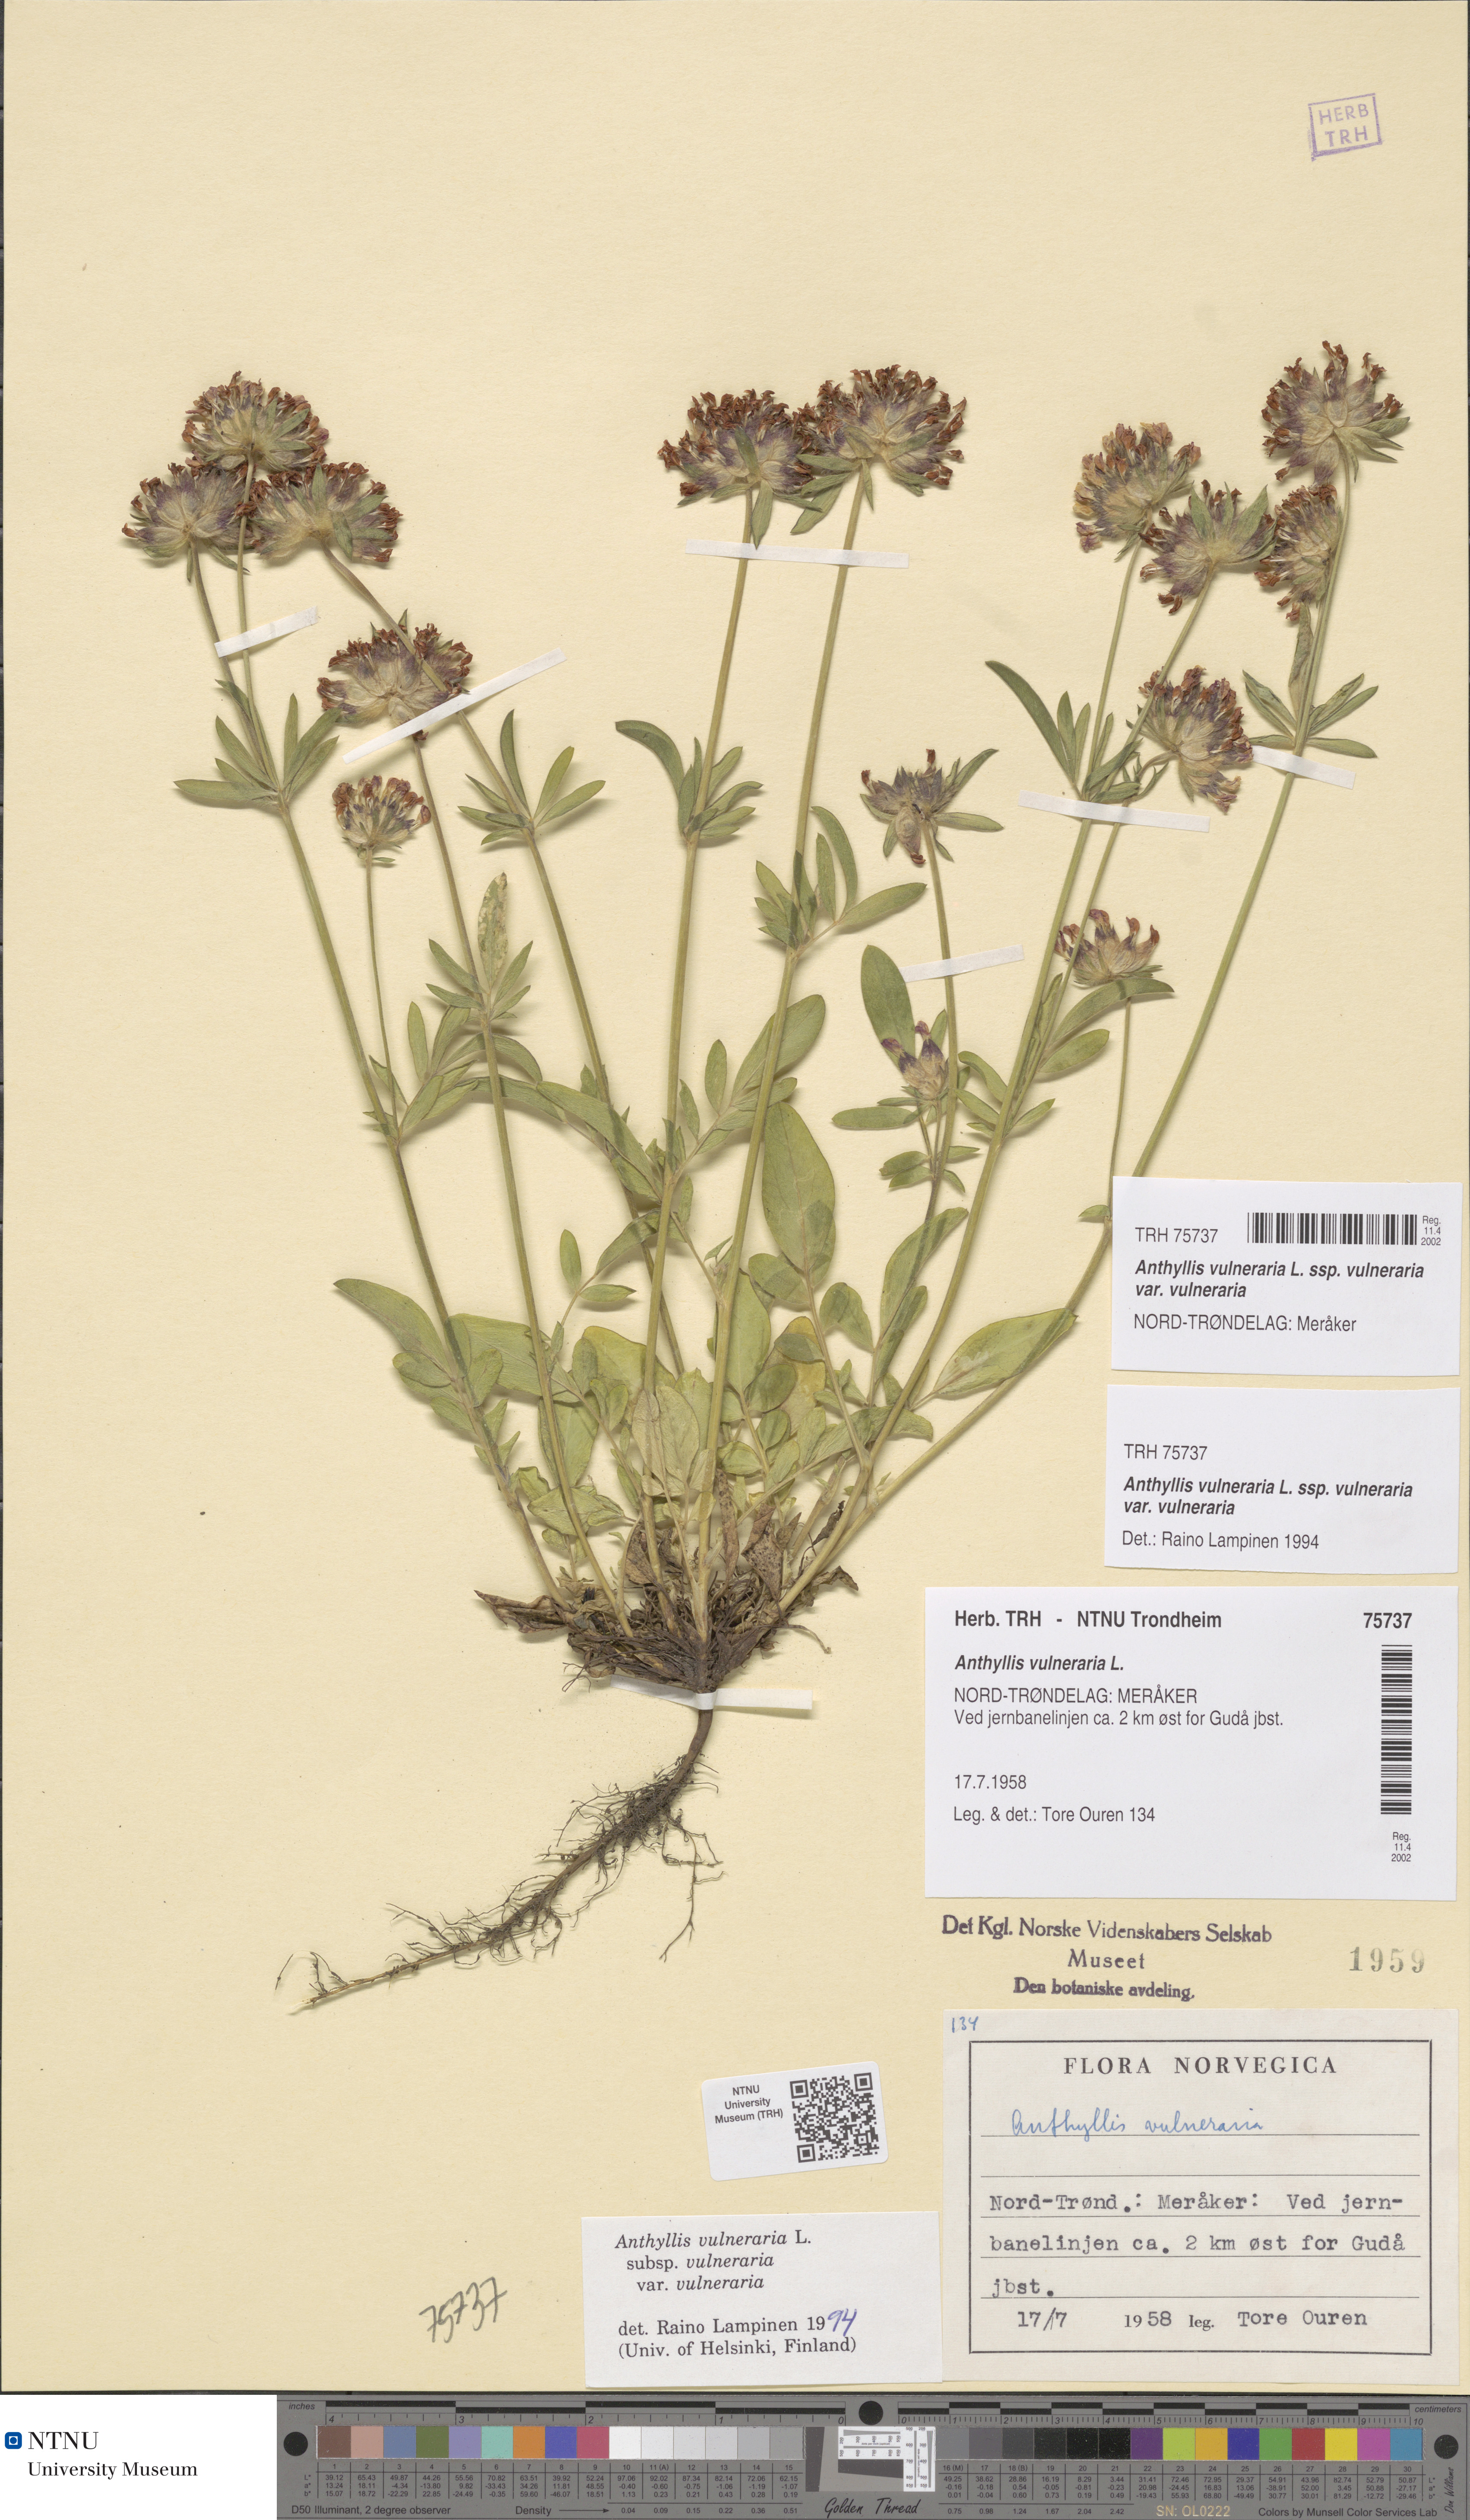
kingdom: Plantae
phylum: Tracheophyta
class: Magnoliopsida
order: Fabales
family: Fabaceae
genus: Anthyllis
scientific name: Anthyllis vulneraria
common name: Kidney vetch
